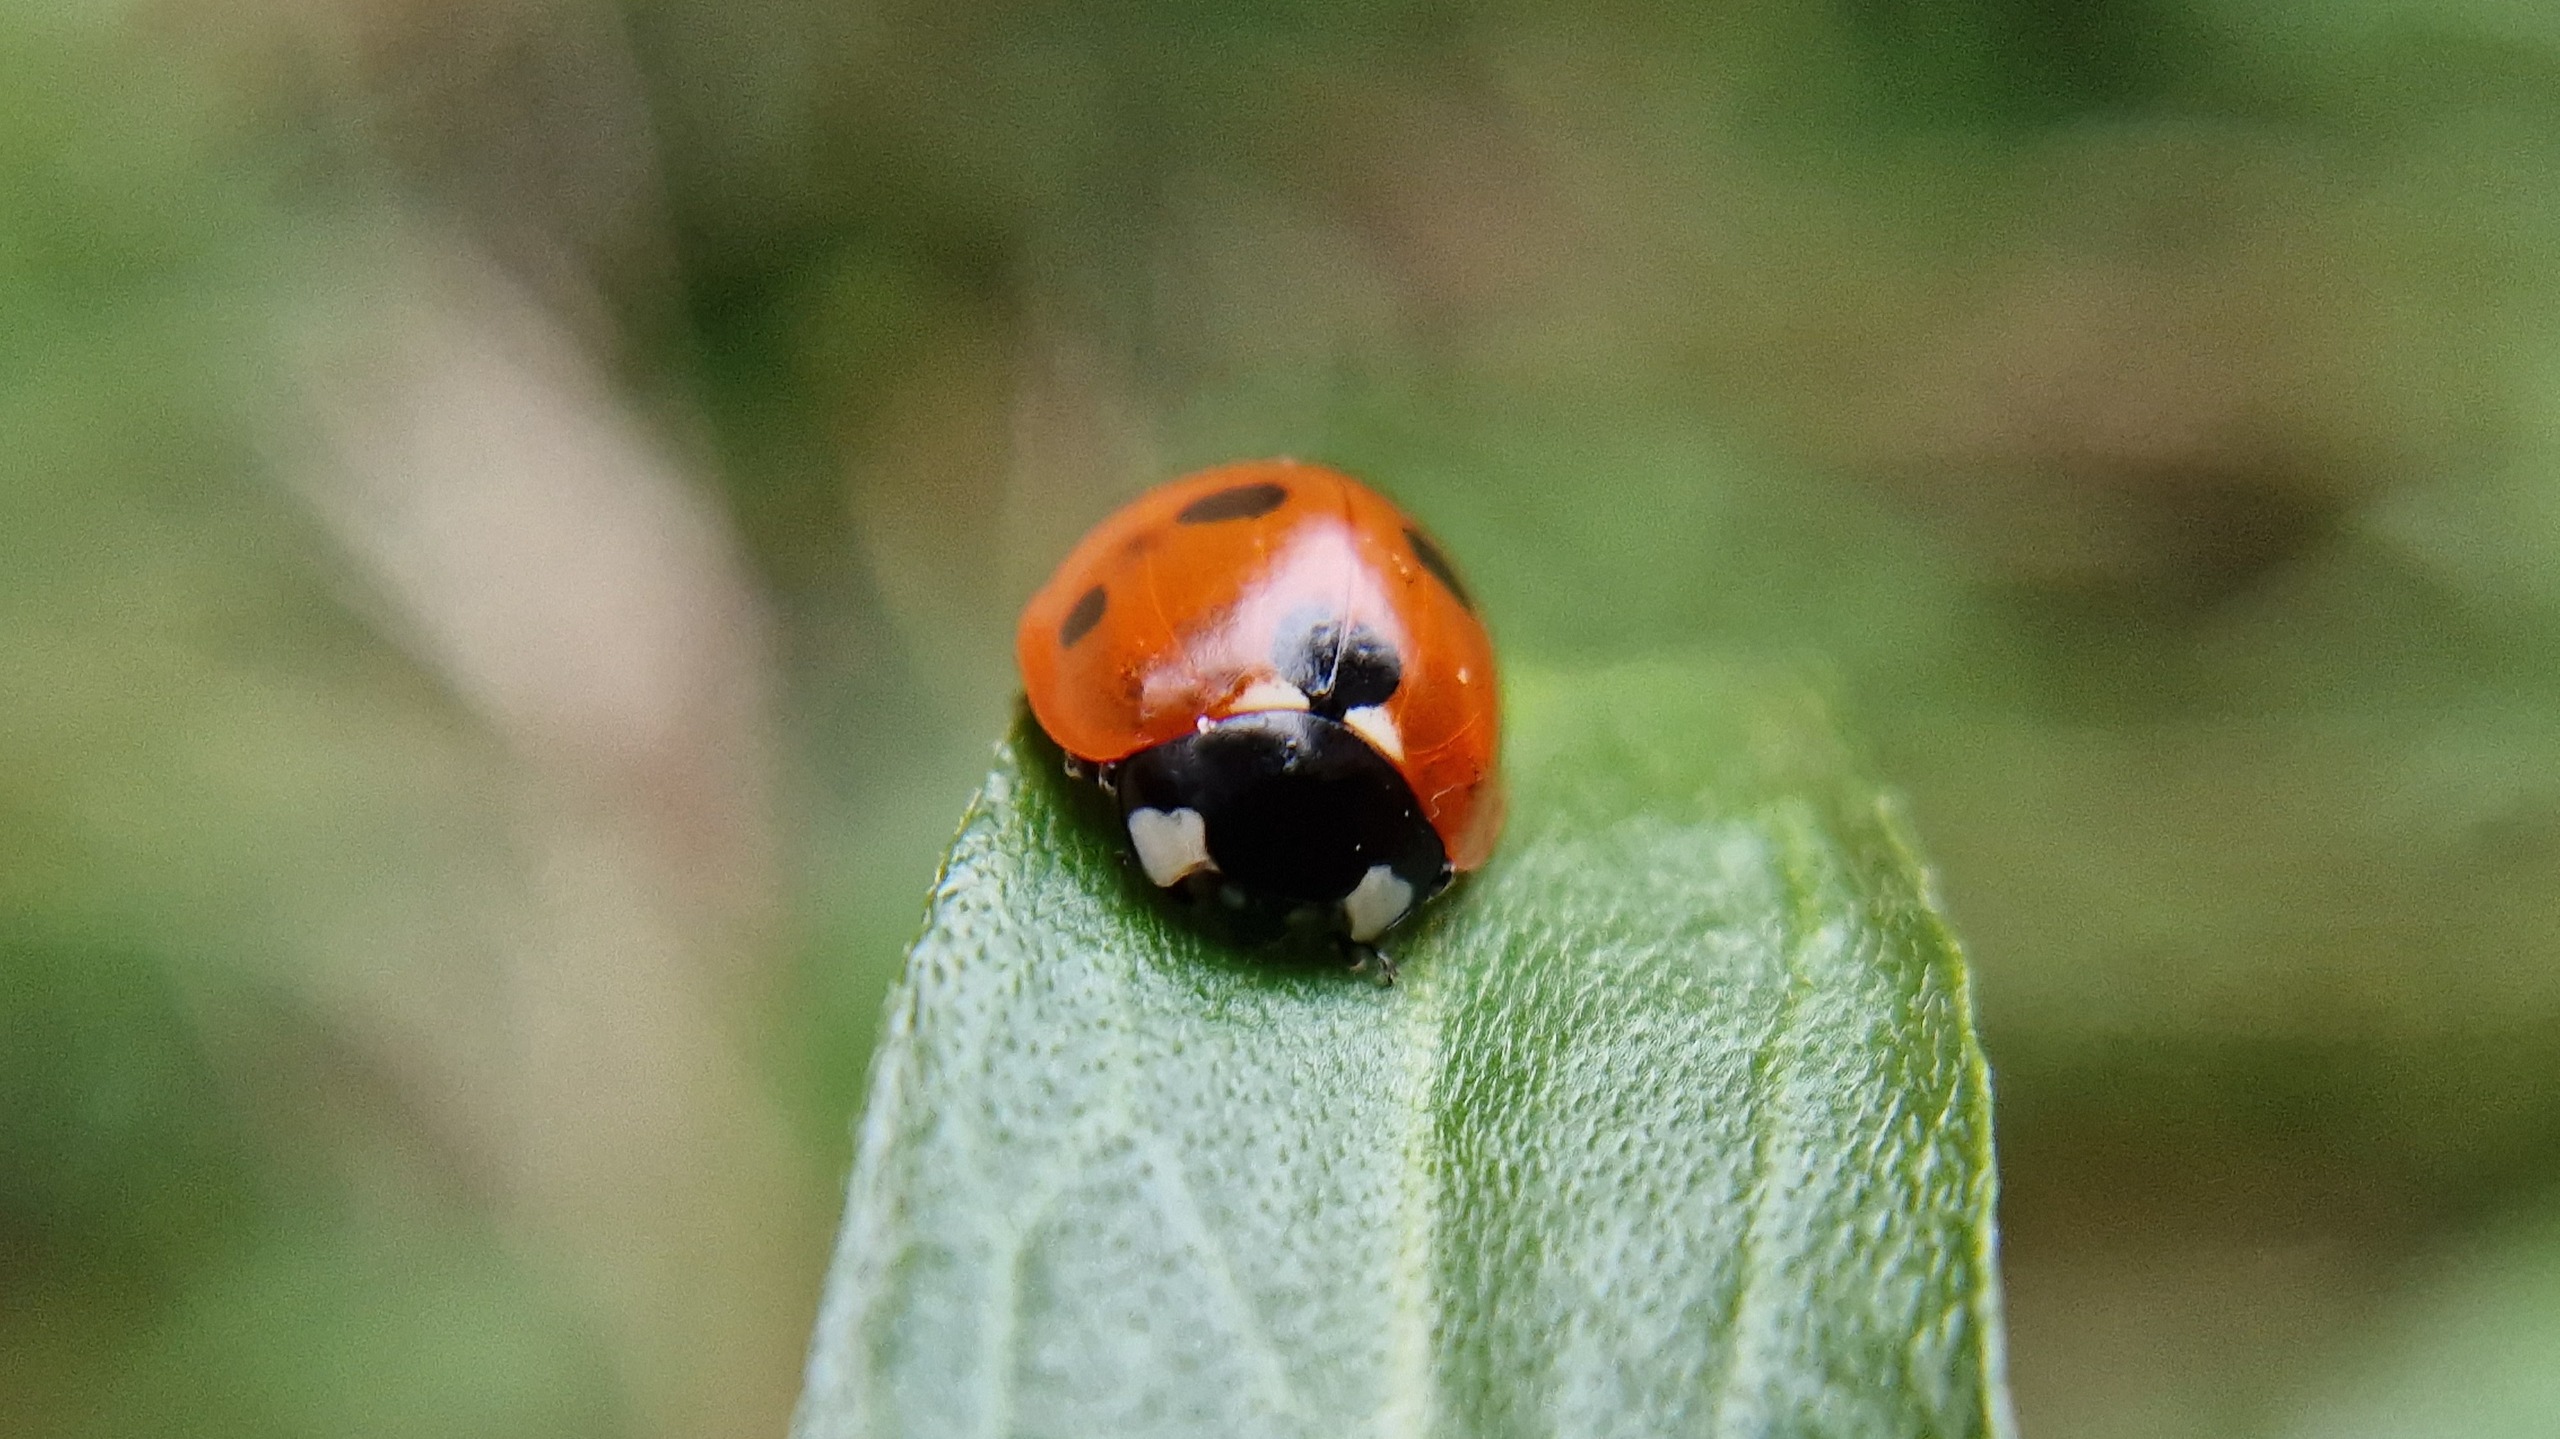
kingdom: Animalia
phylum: Arthropoda
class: Insecta
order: Coleoptera
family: Coccinellidae
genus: Coccinella
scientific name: Coccinella septempunctata
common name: Syvplettet mariehøne
